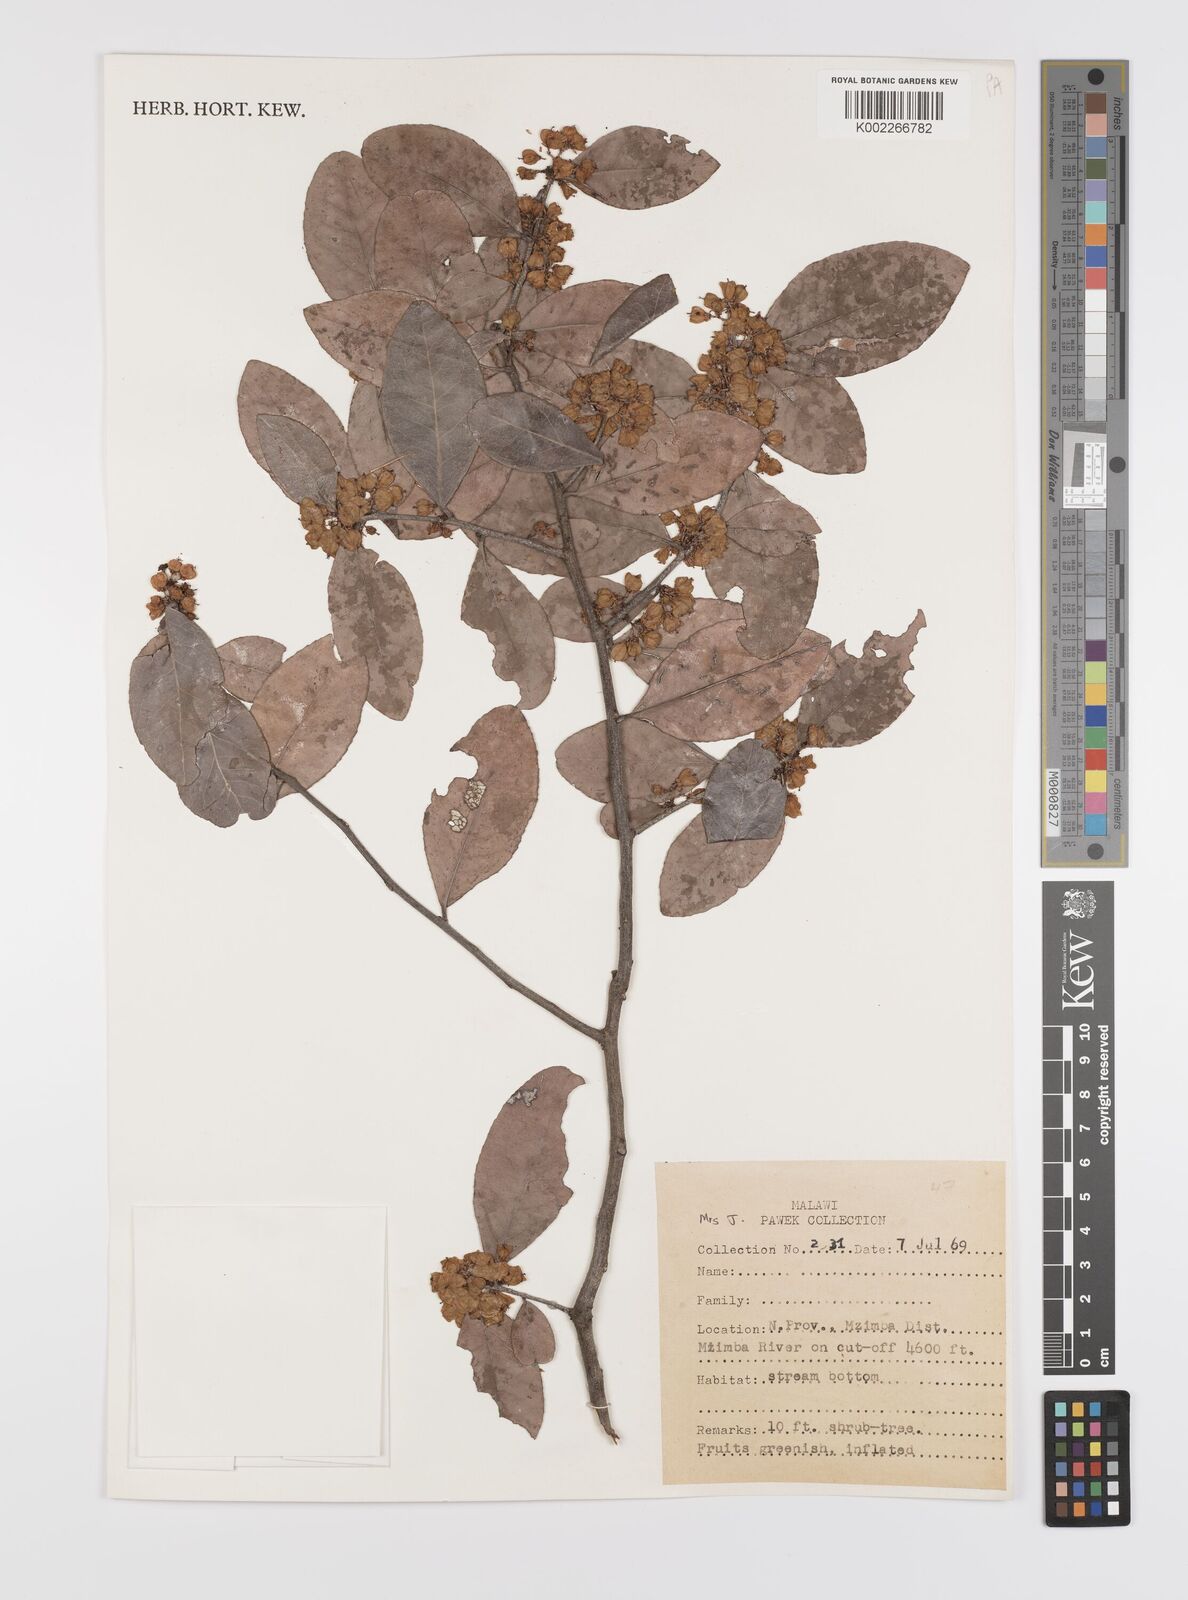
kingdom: Plantae
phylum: Tracheophyta
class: Magnoliopsida
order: Celastrales
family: Celastraceae
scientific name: Celastraceae
